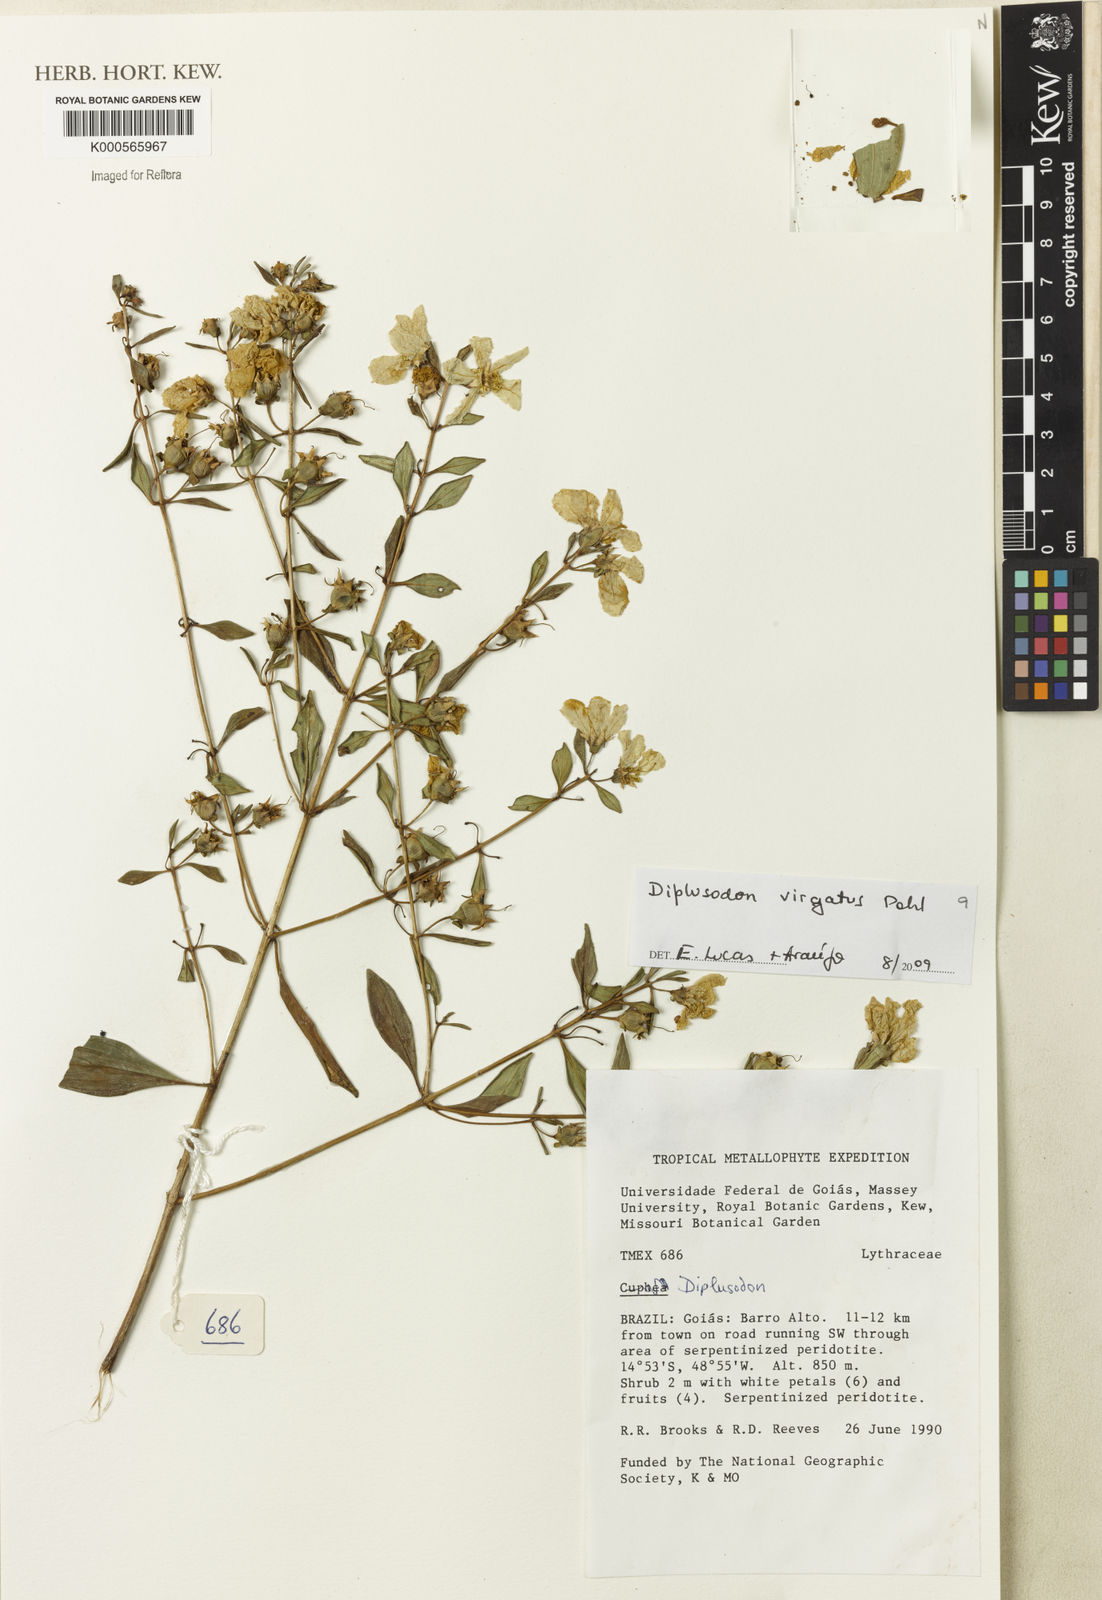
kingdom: Plantae
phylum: Tracheophyta
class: Magnoliopsida
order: Myrtales
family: Lythraceae
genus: Diplusodon
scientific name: Diplusodon virgatus
